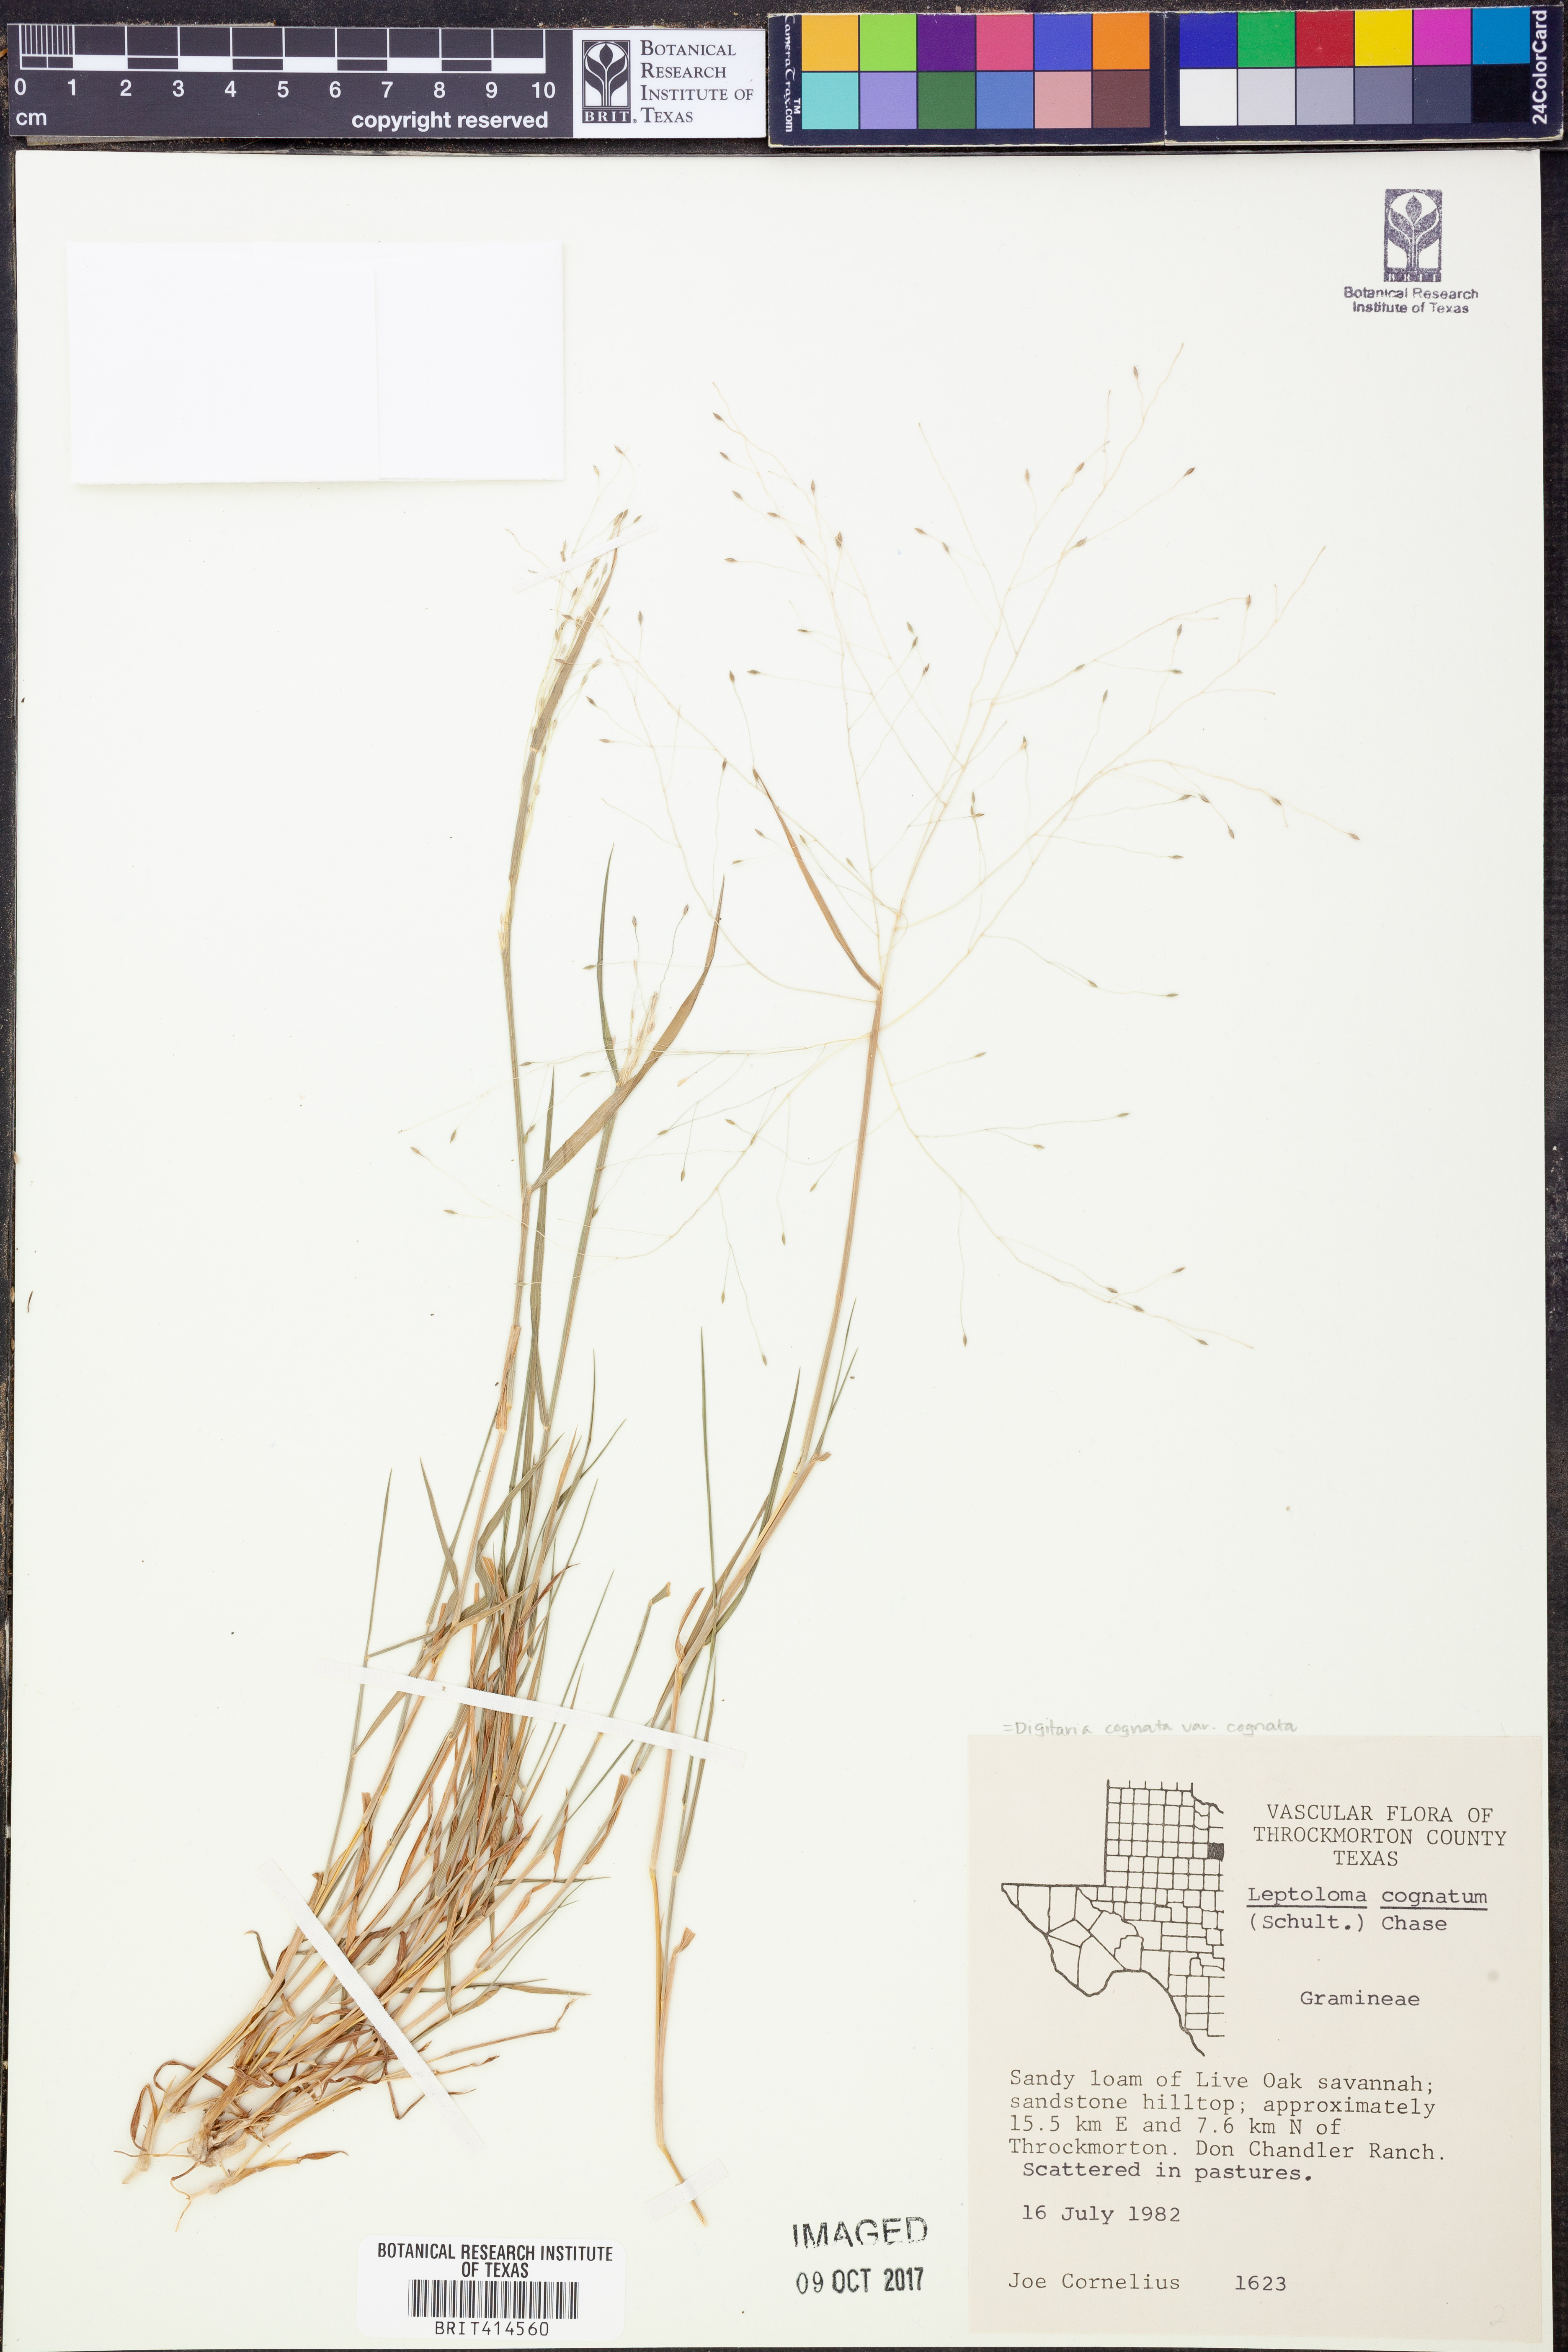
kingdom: Plantae
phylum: Tracheophyta
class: Liliopsida
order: Poales
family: Poaceae
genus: Digitaria
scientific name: Digitaria cognata
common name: Fall witchgrass
